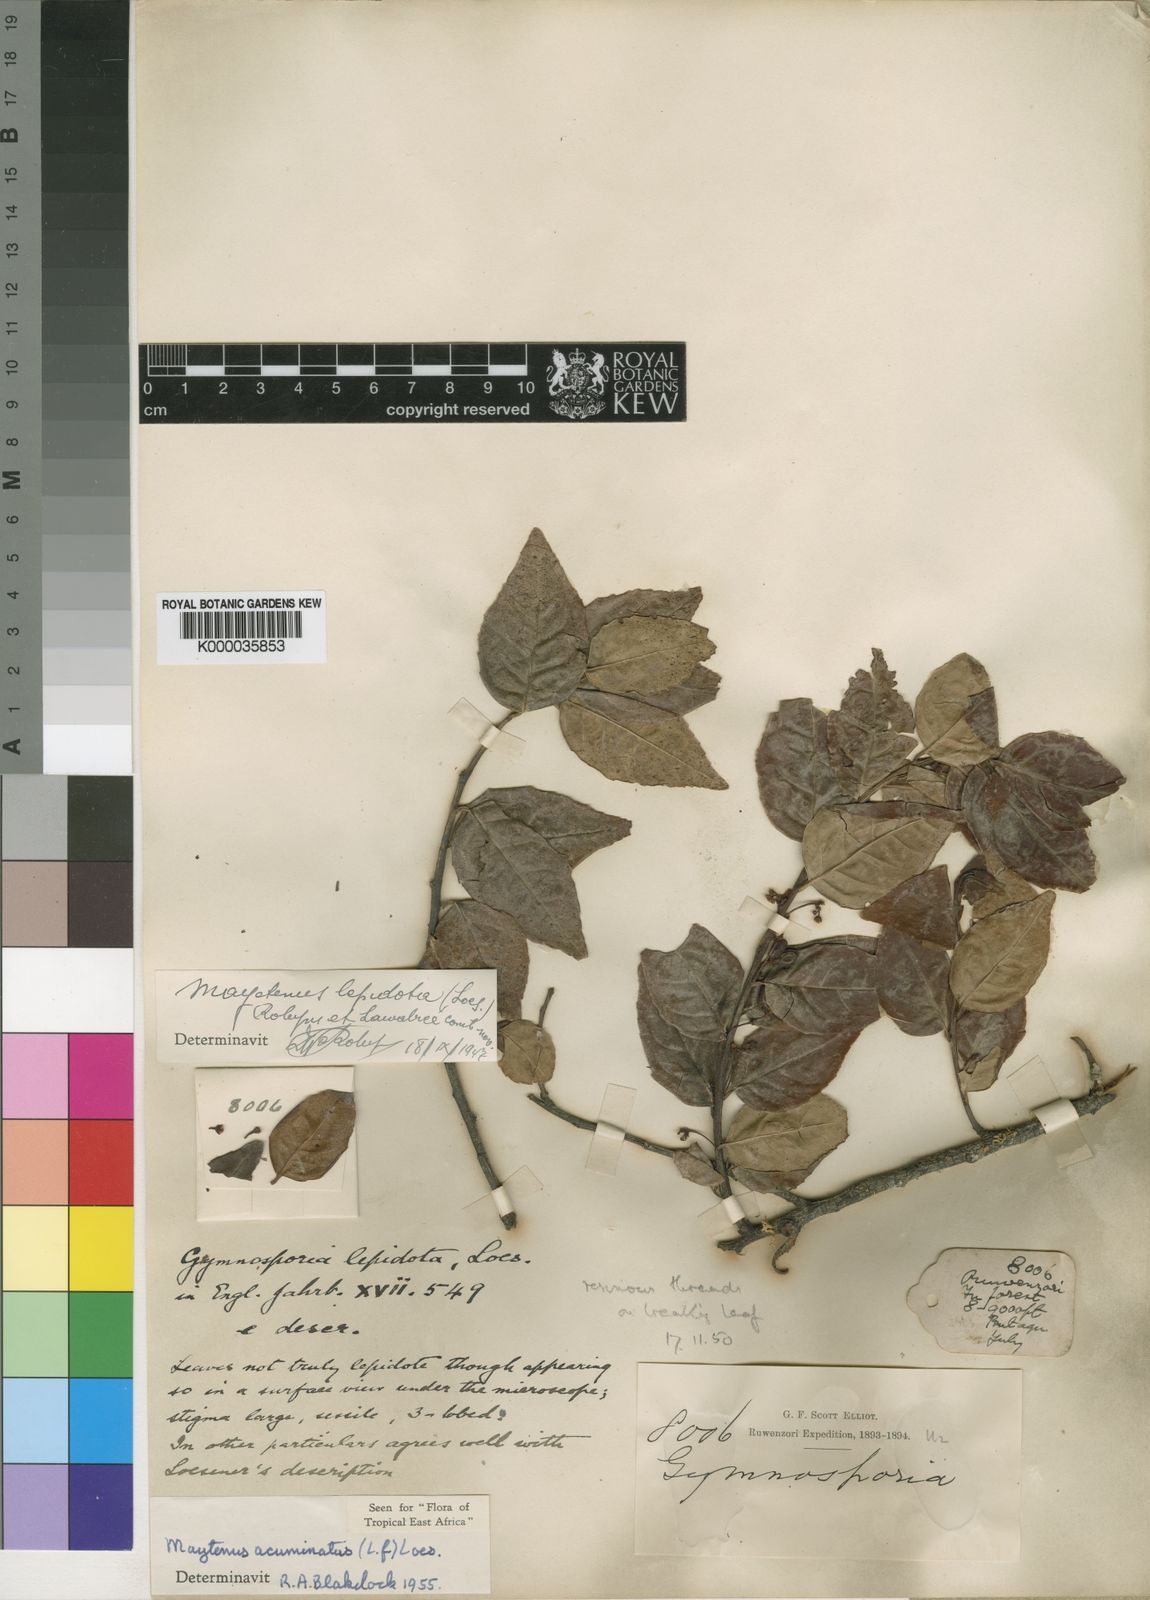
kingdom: Plantae
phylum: Tracheophyta
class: Magnoliopsida
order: Celastrales
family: Celastraceae
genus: Gymnosporia
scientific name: Gymnosporia acuminata
